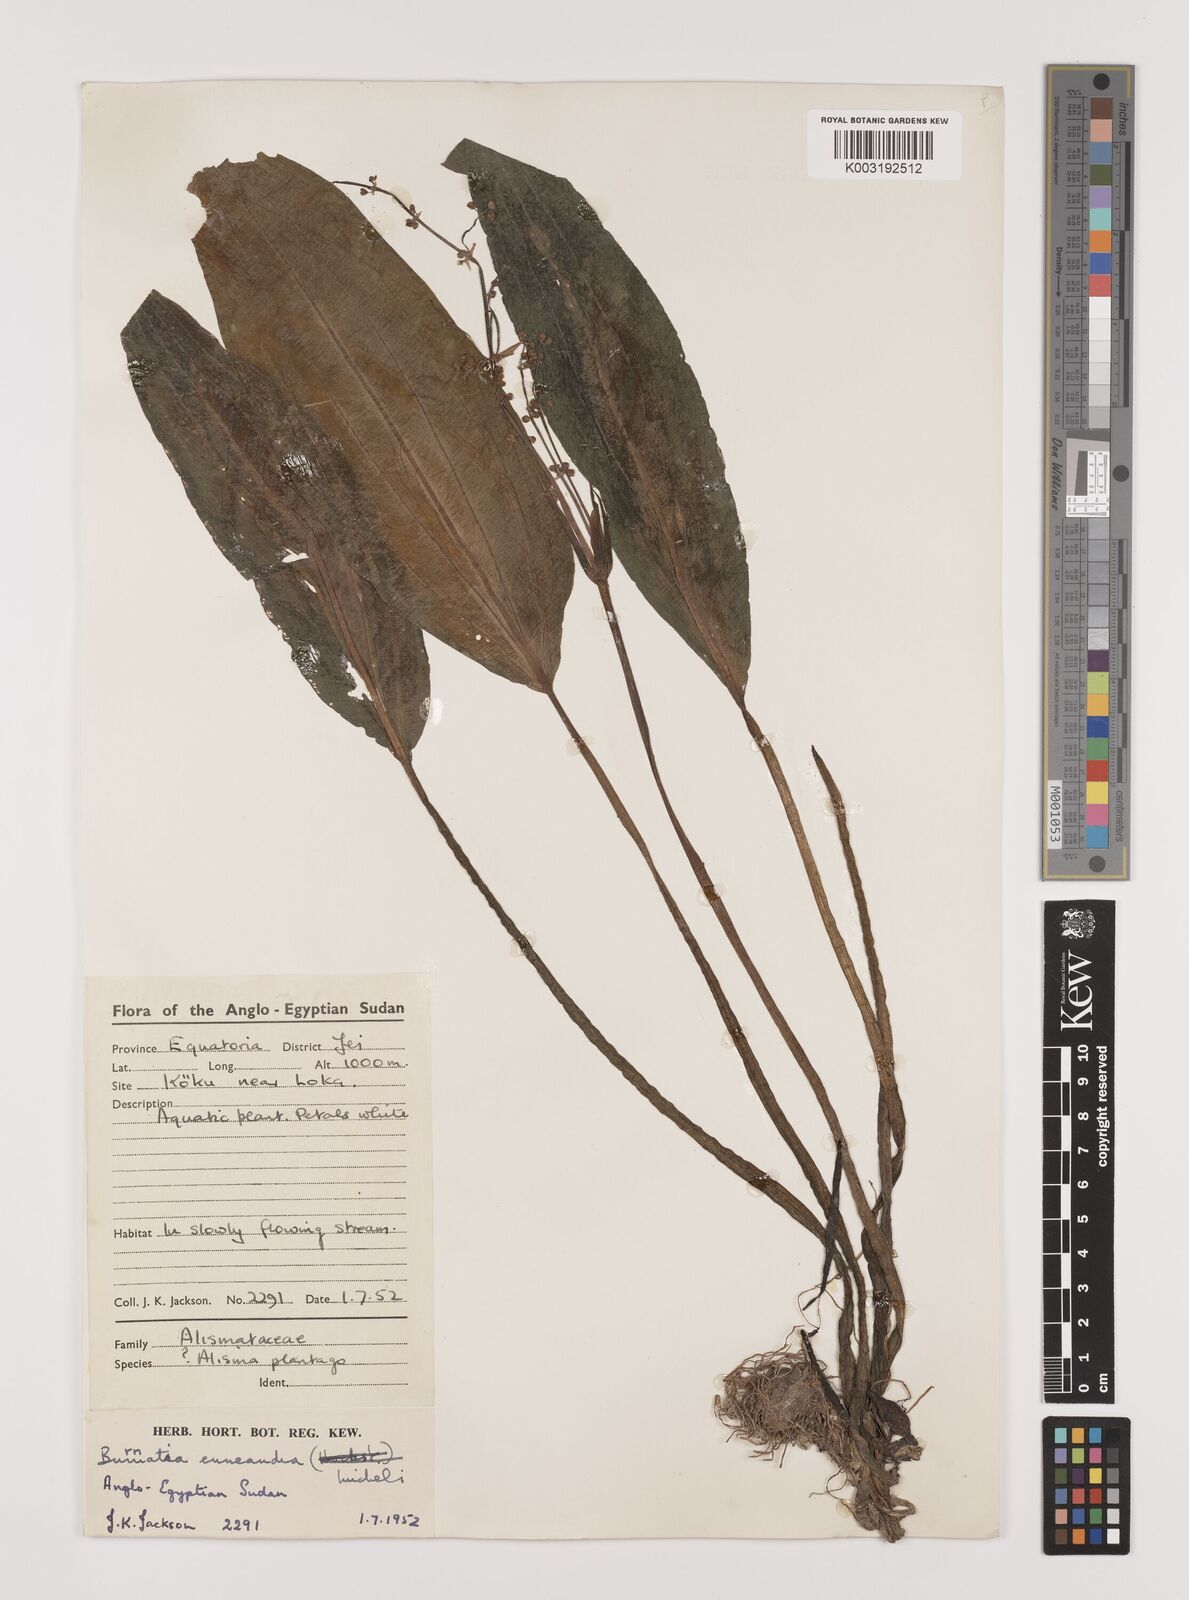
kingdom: Plantae
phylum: Tracheophyta
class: Liliopsida
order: Alismatales
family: Alismataceae
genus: Burnatia
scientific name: Burnatia enneandra
